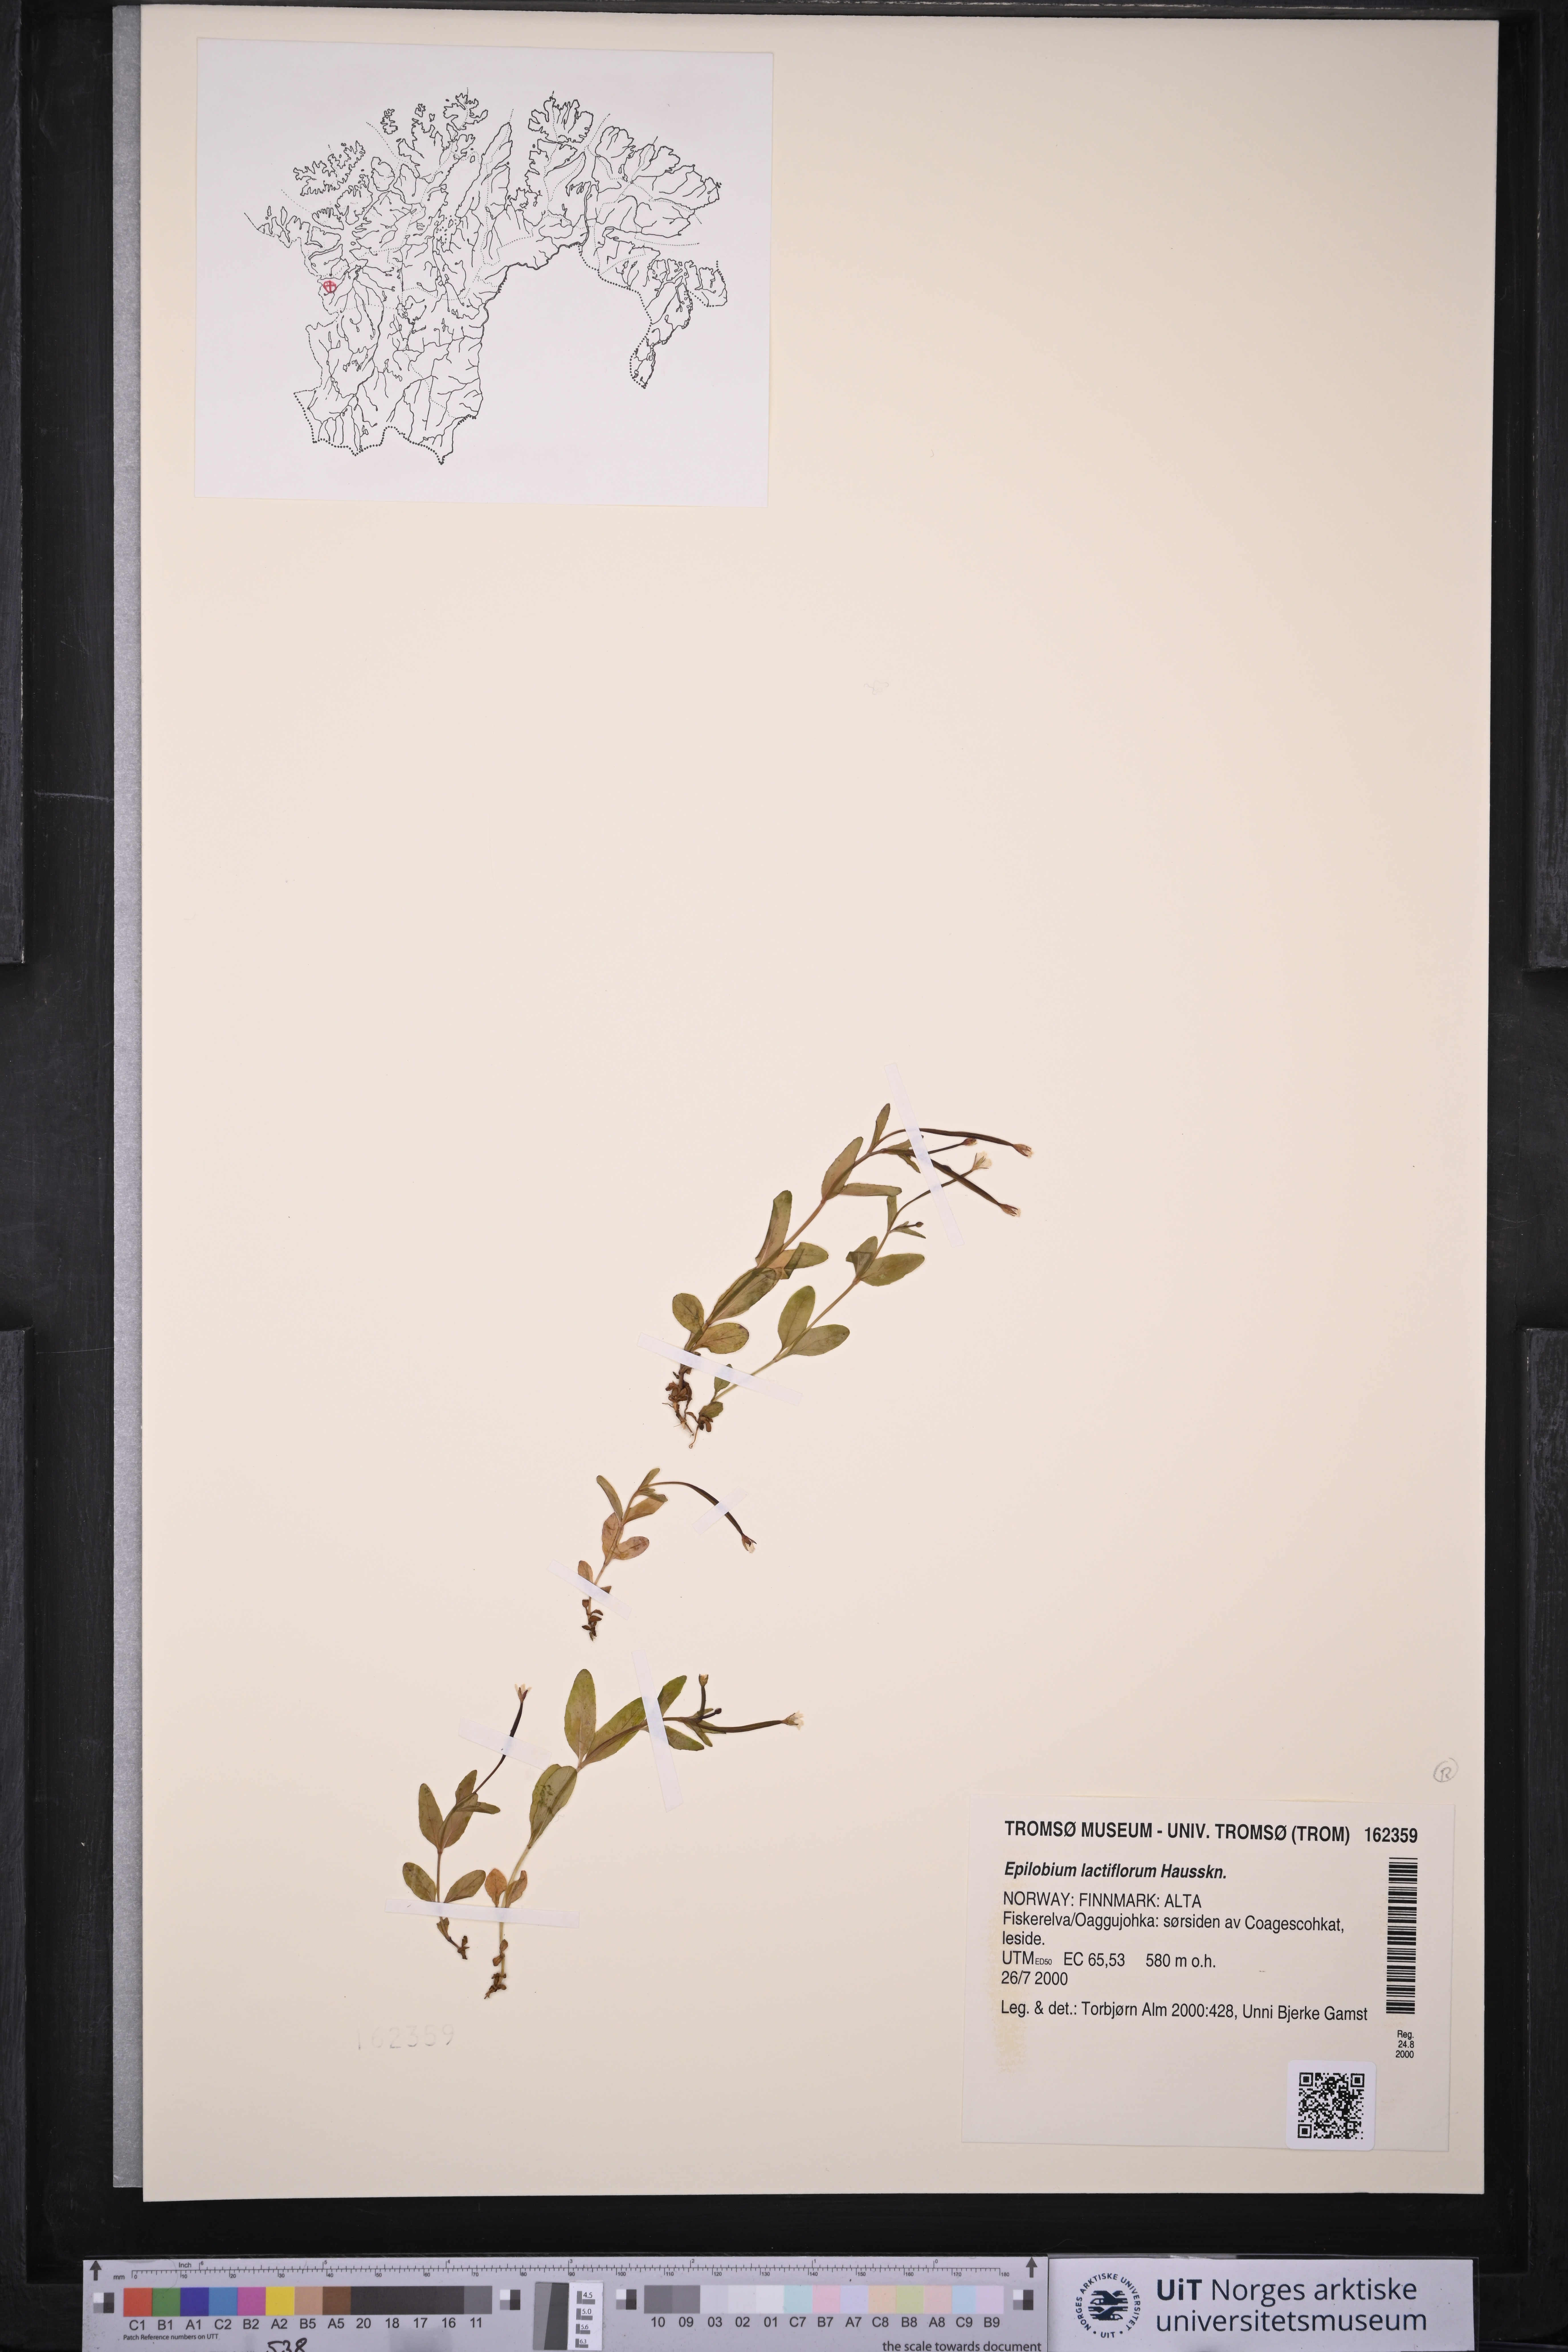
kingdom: Plantae
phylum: Tracheophyta
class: Magnoliopsida
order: Myrtales
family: Onagraceae
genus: Epilobium
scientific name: Epilobium lactiflorum
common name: Milkflower willowherb
